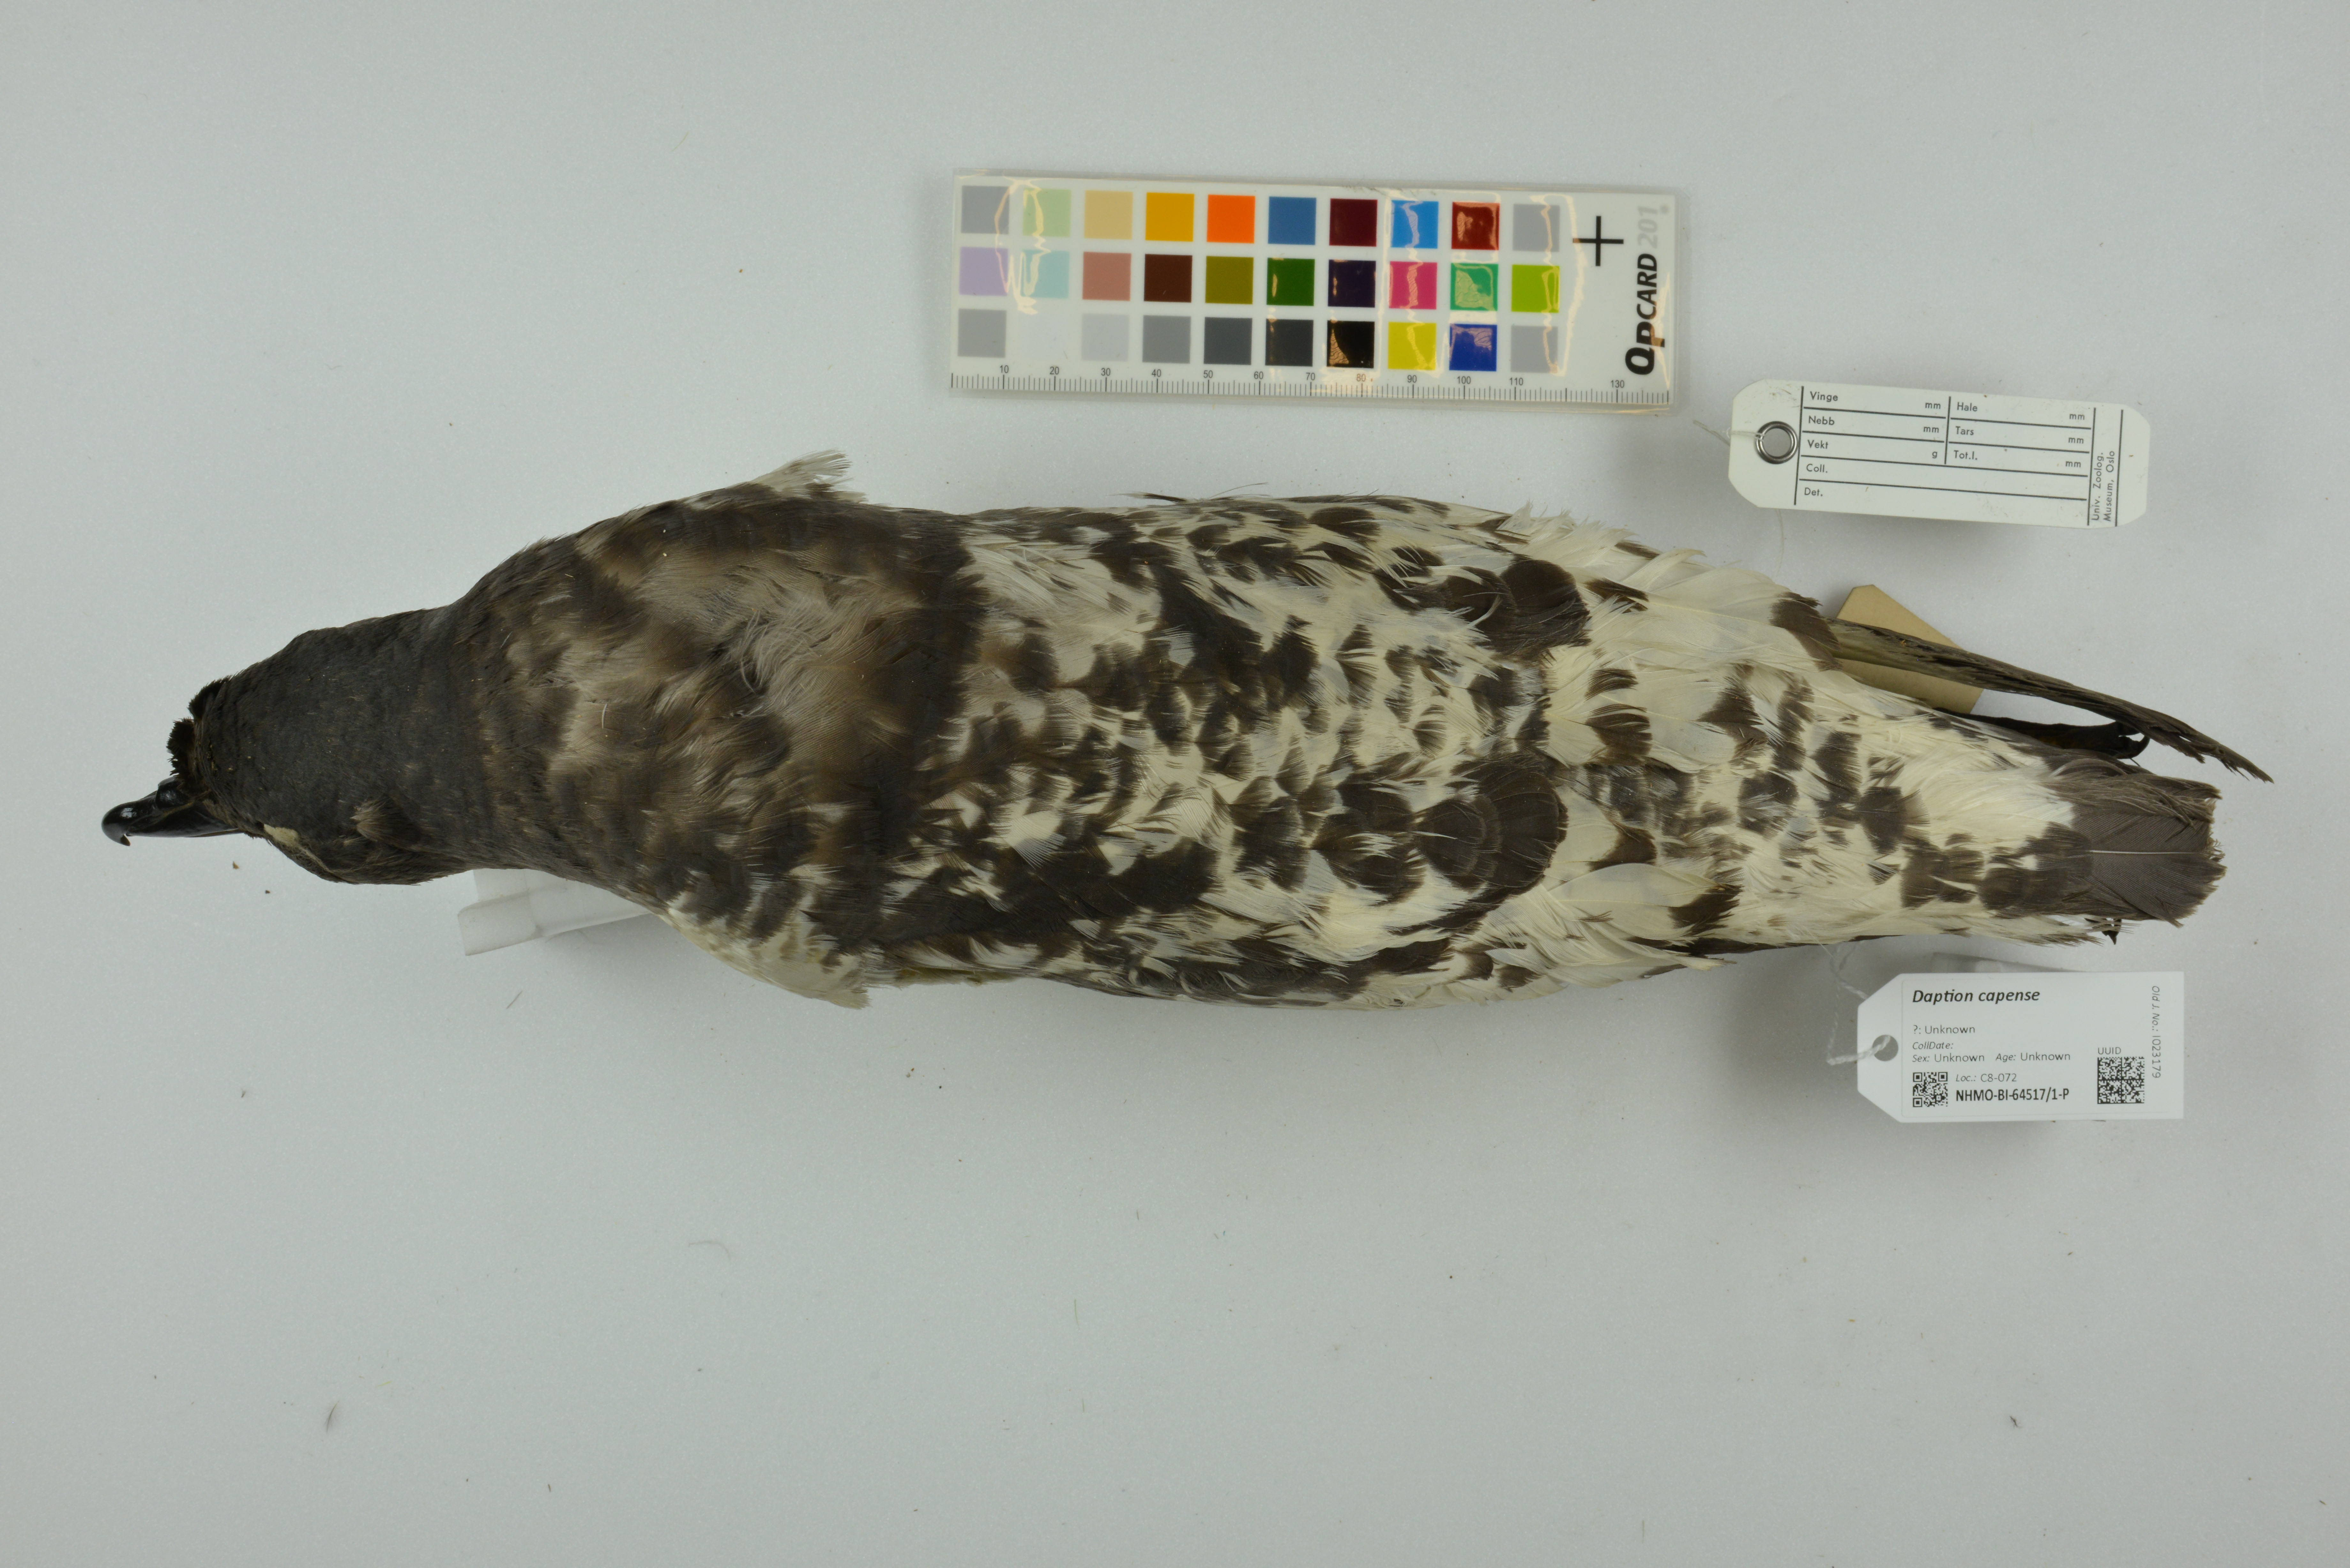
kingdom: Animalia
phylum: Chordata
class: Aves
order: Procellariiformes
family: Procellariidae
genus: Daption
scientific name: Daption capense
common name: Cape petrel
